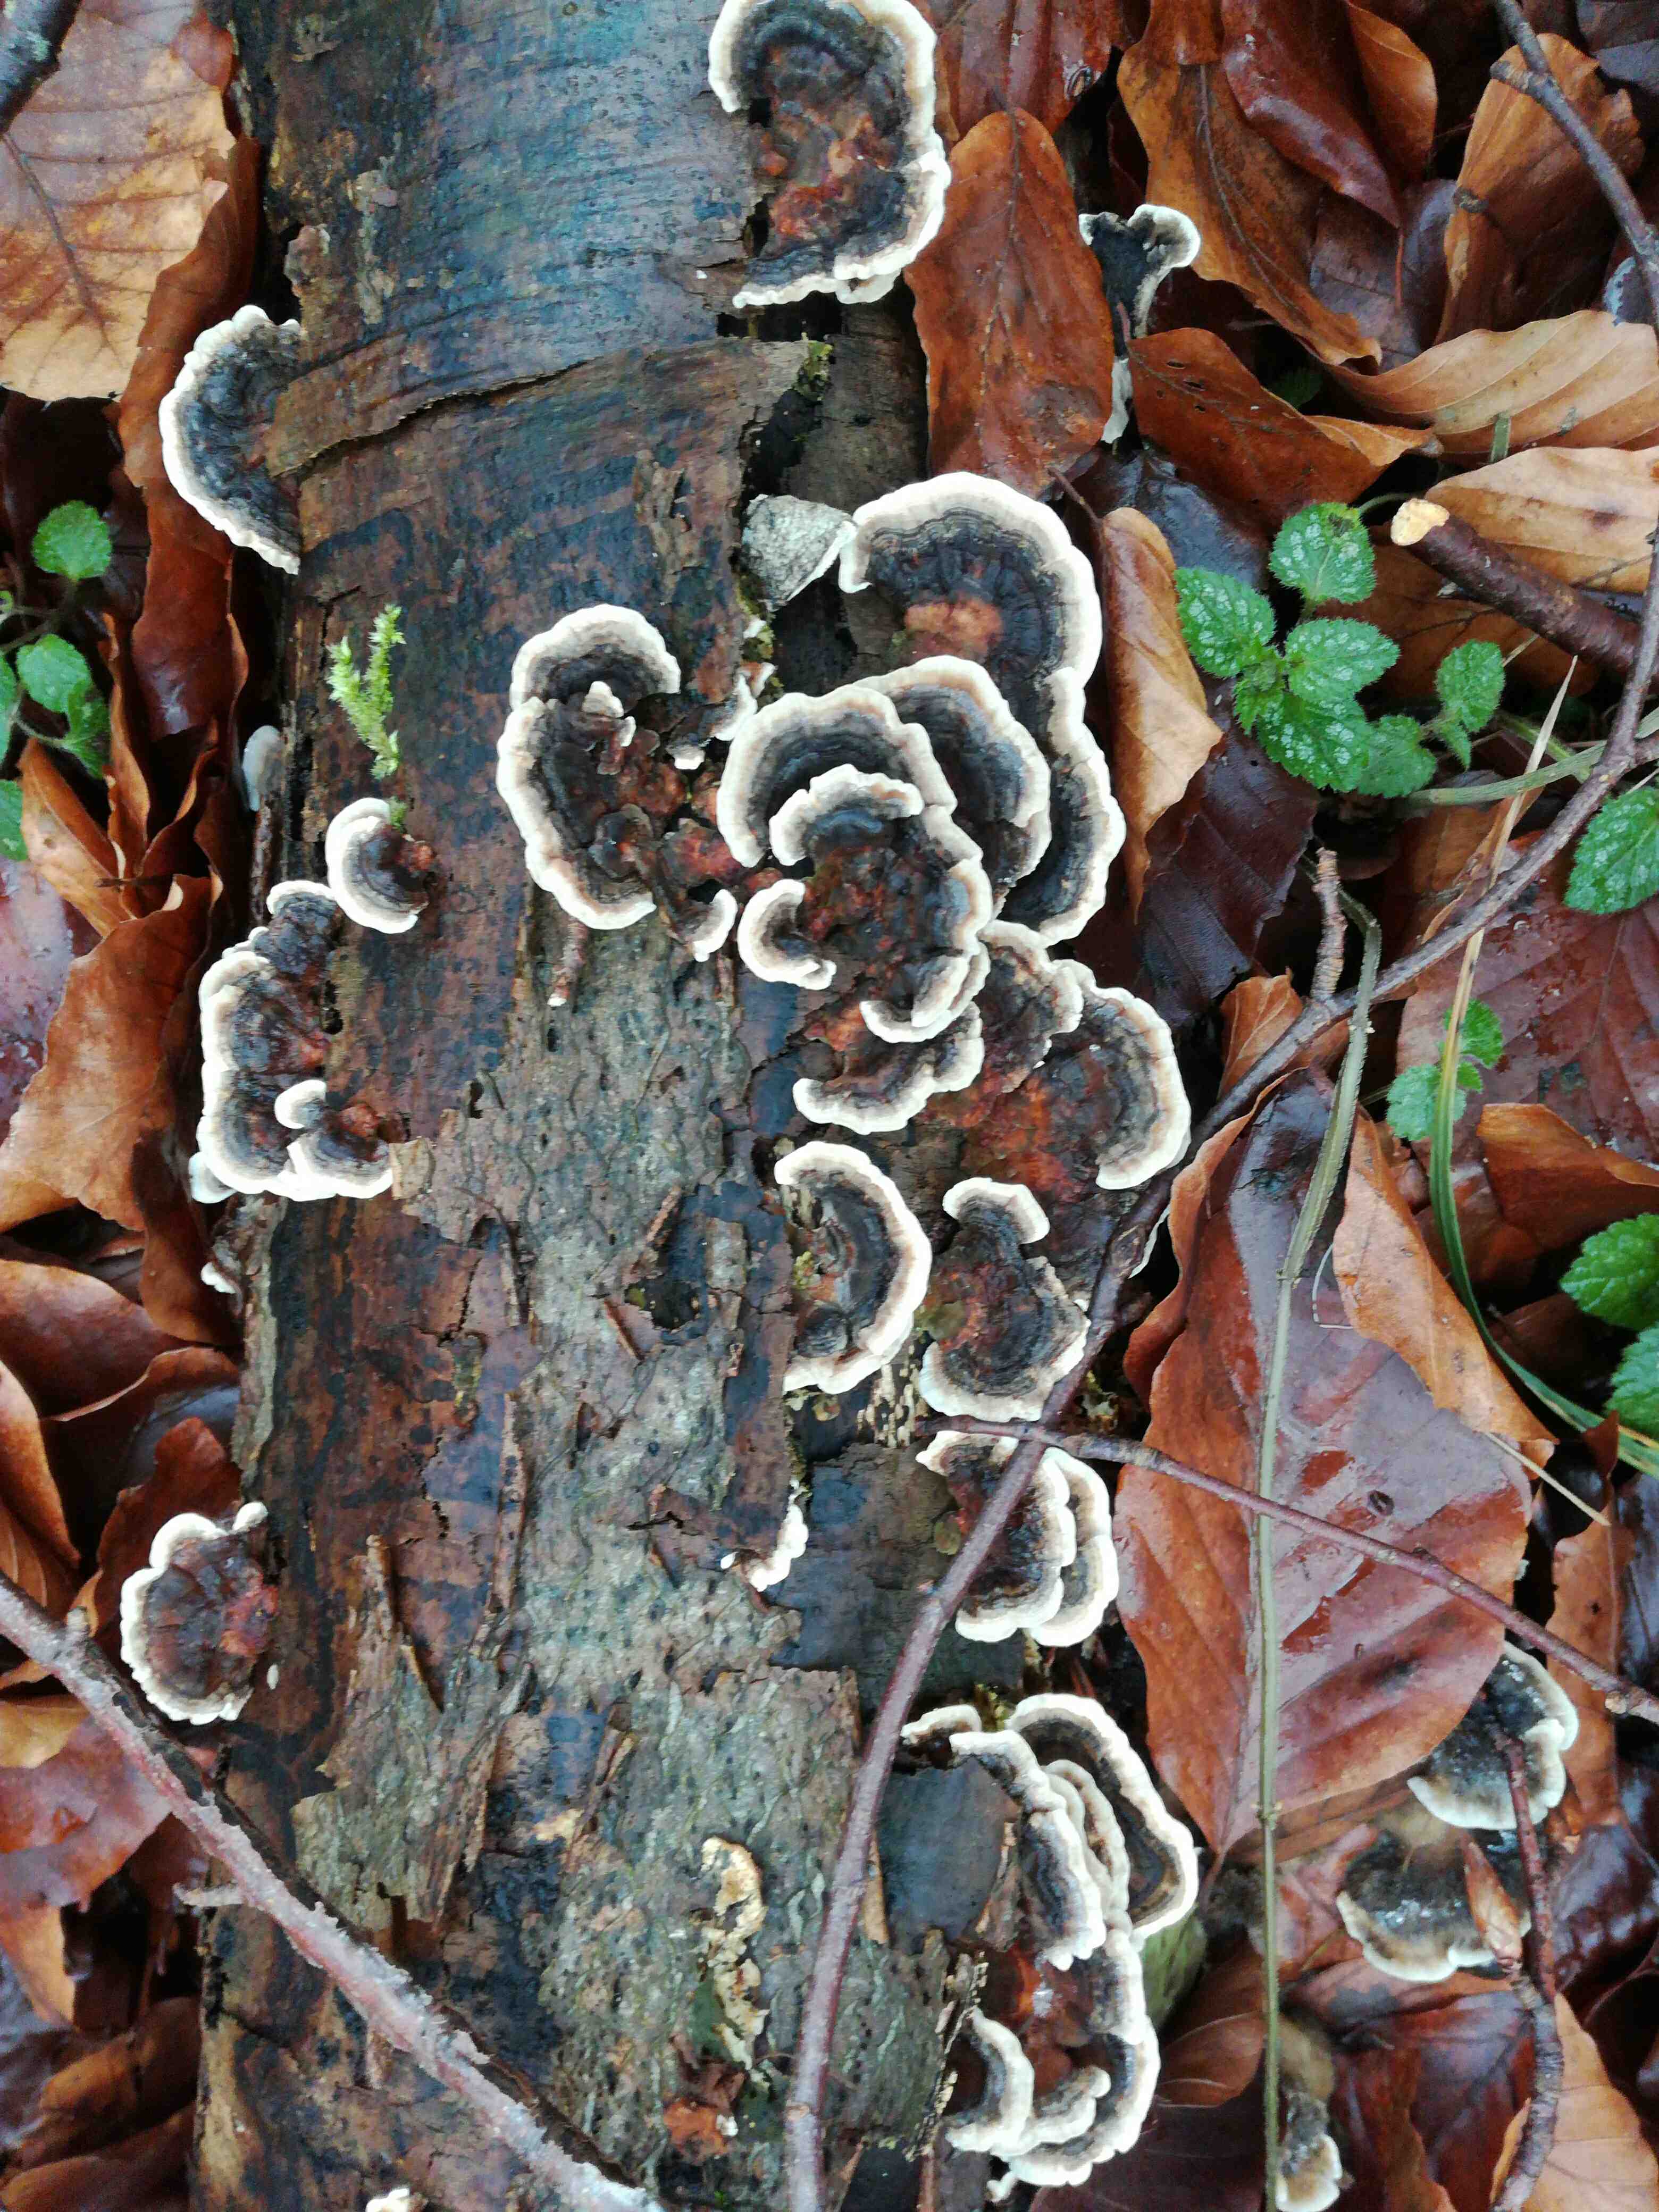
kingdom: Fungi
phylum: Basidiomycota
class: Agaricomycetes
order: Polyporales
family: Polyporaceae
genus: Trametes
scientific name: Trametes versicolor
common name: broget læderporesvamp
